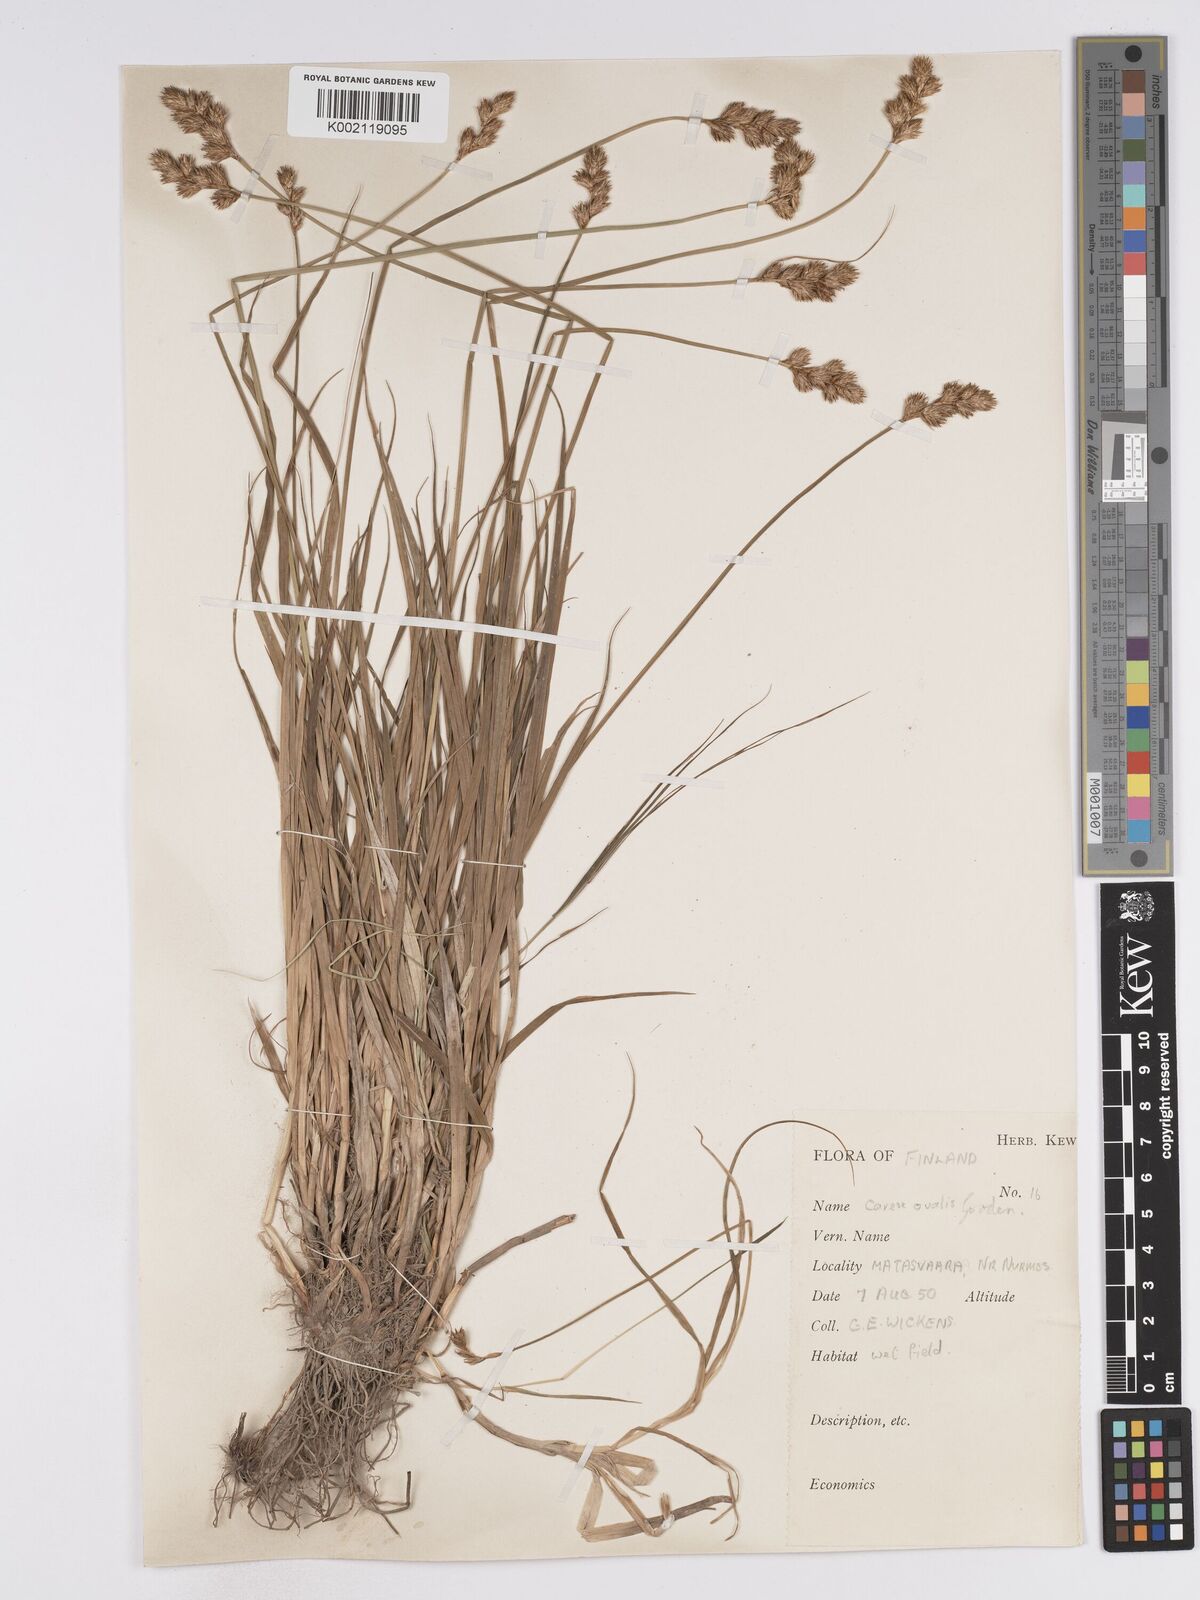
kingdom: Plantae
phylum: Tracheophyta
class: Liliopsida
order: Poales
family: Cyperaceae
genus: Carex
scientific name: Carex leporina
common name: Oval sedge
